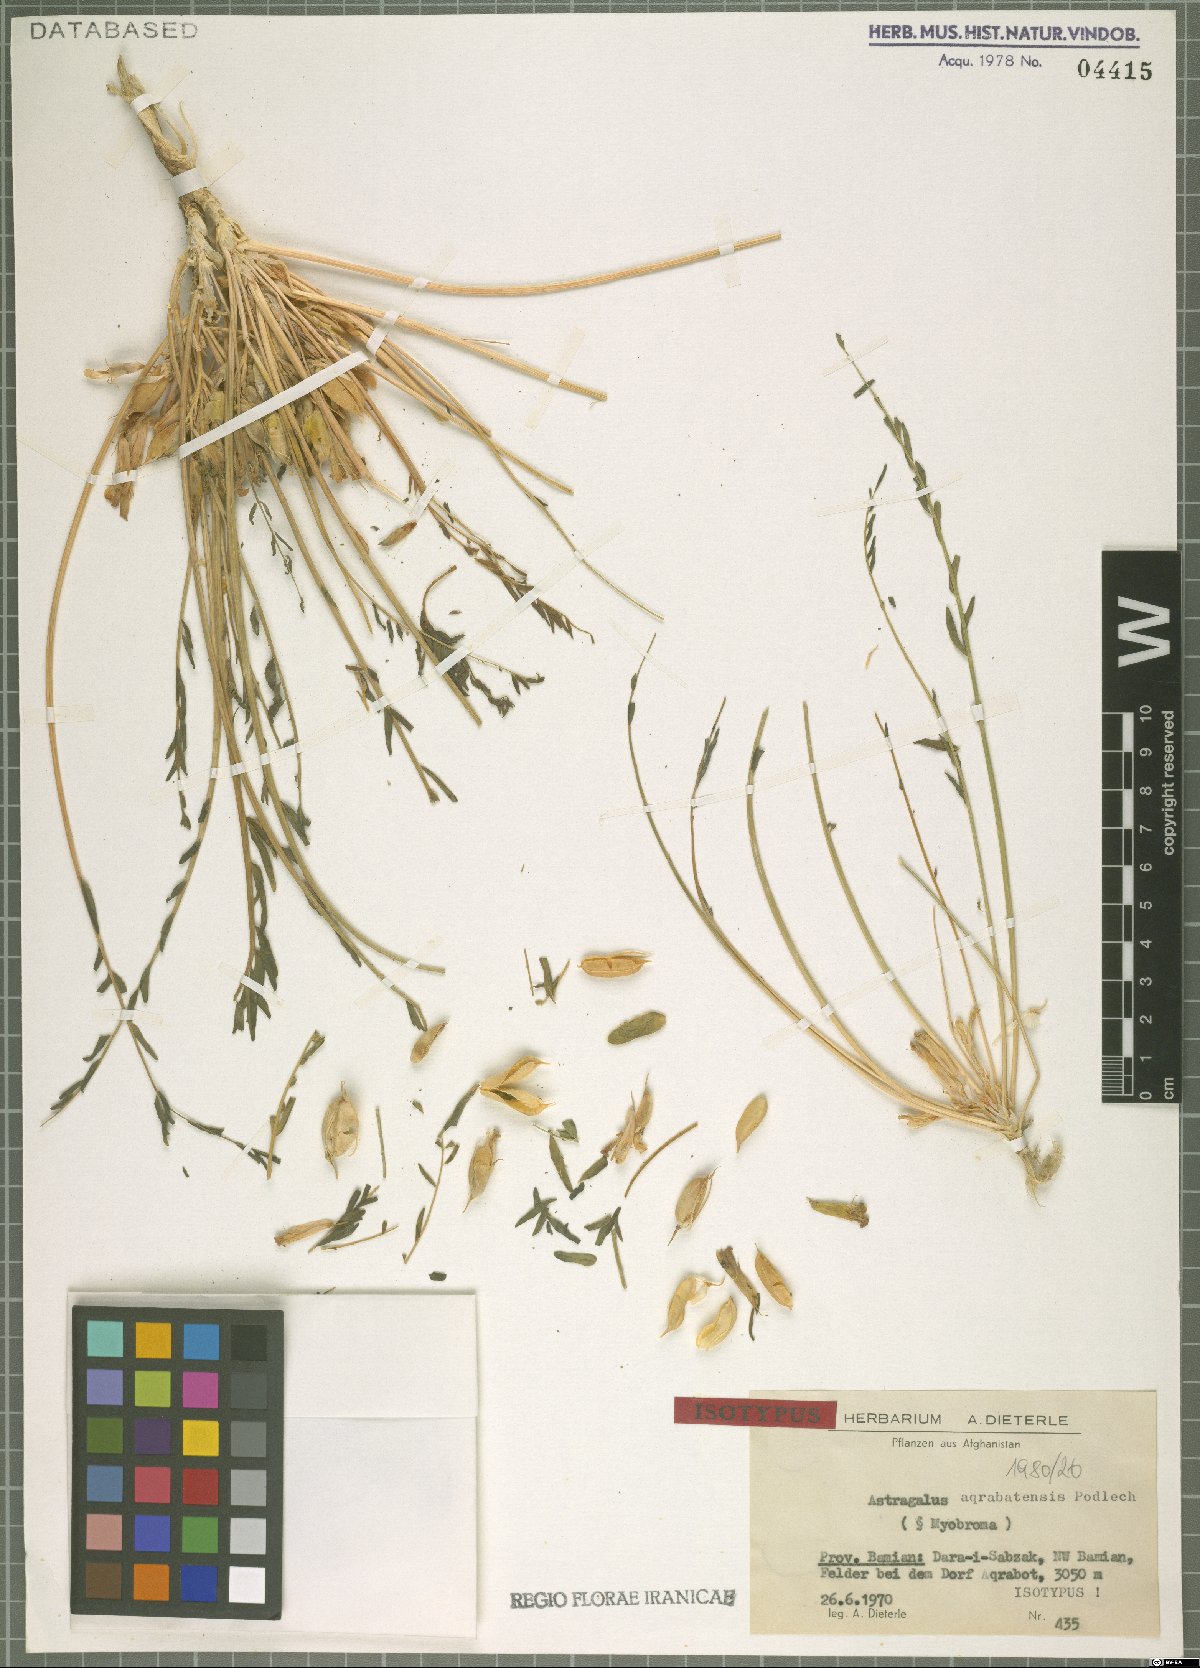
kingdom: Plantae
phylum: Tracheophyta
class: Magnoliopsida
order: Fabales
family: Fabaceae
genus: Astragalus
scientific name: Astragalus aqrabatensis
